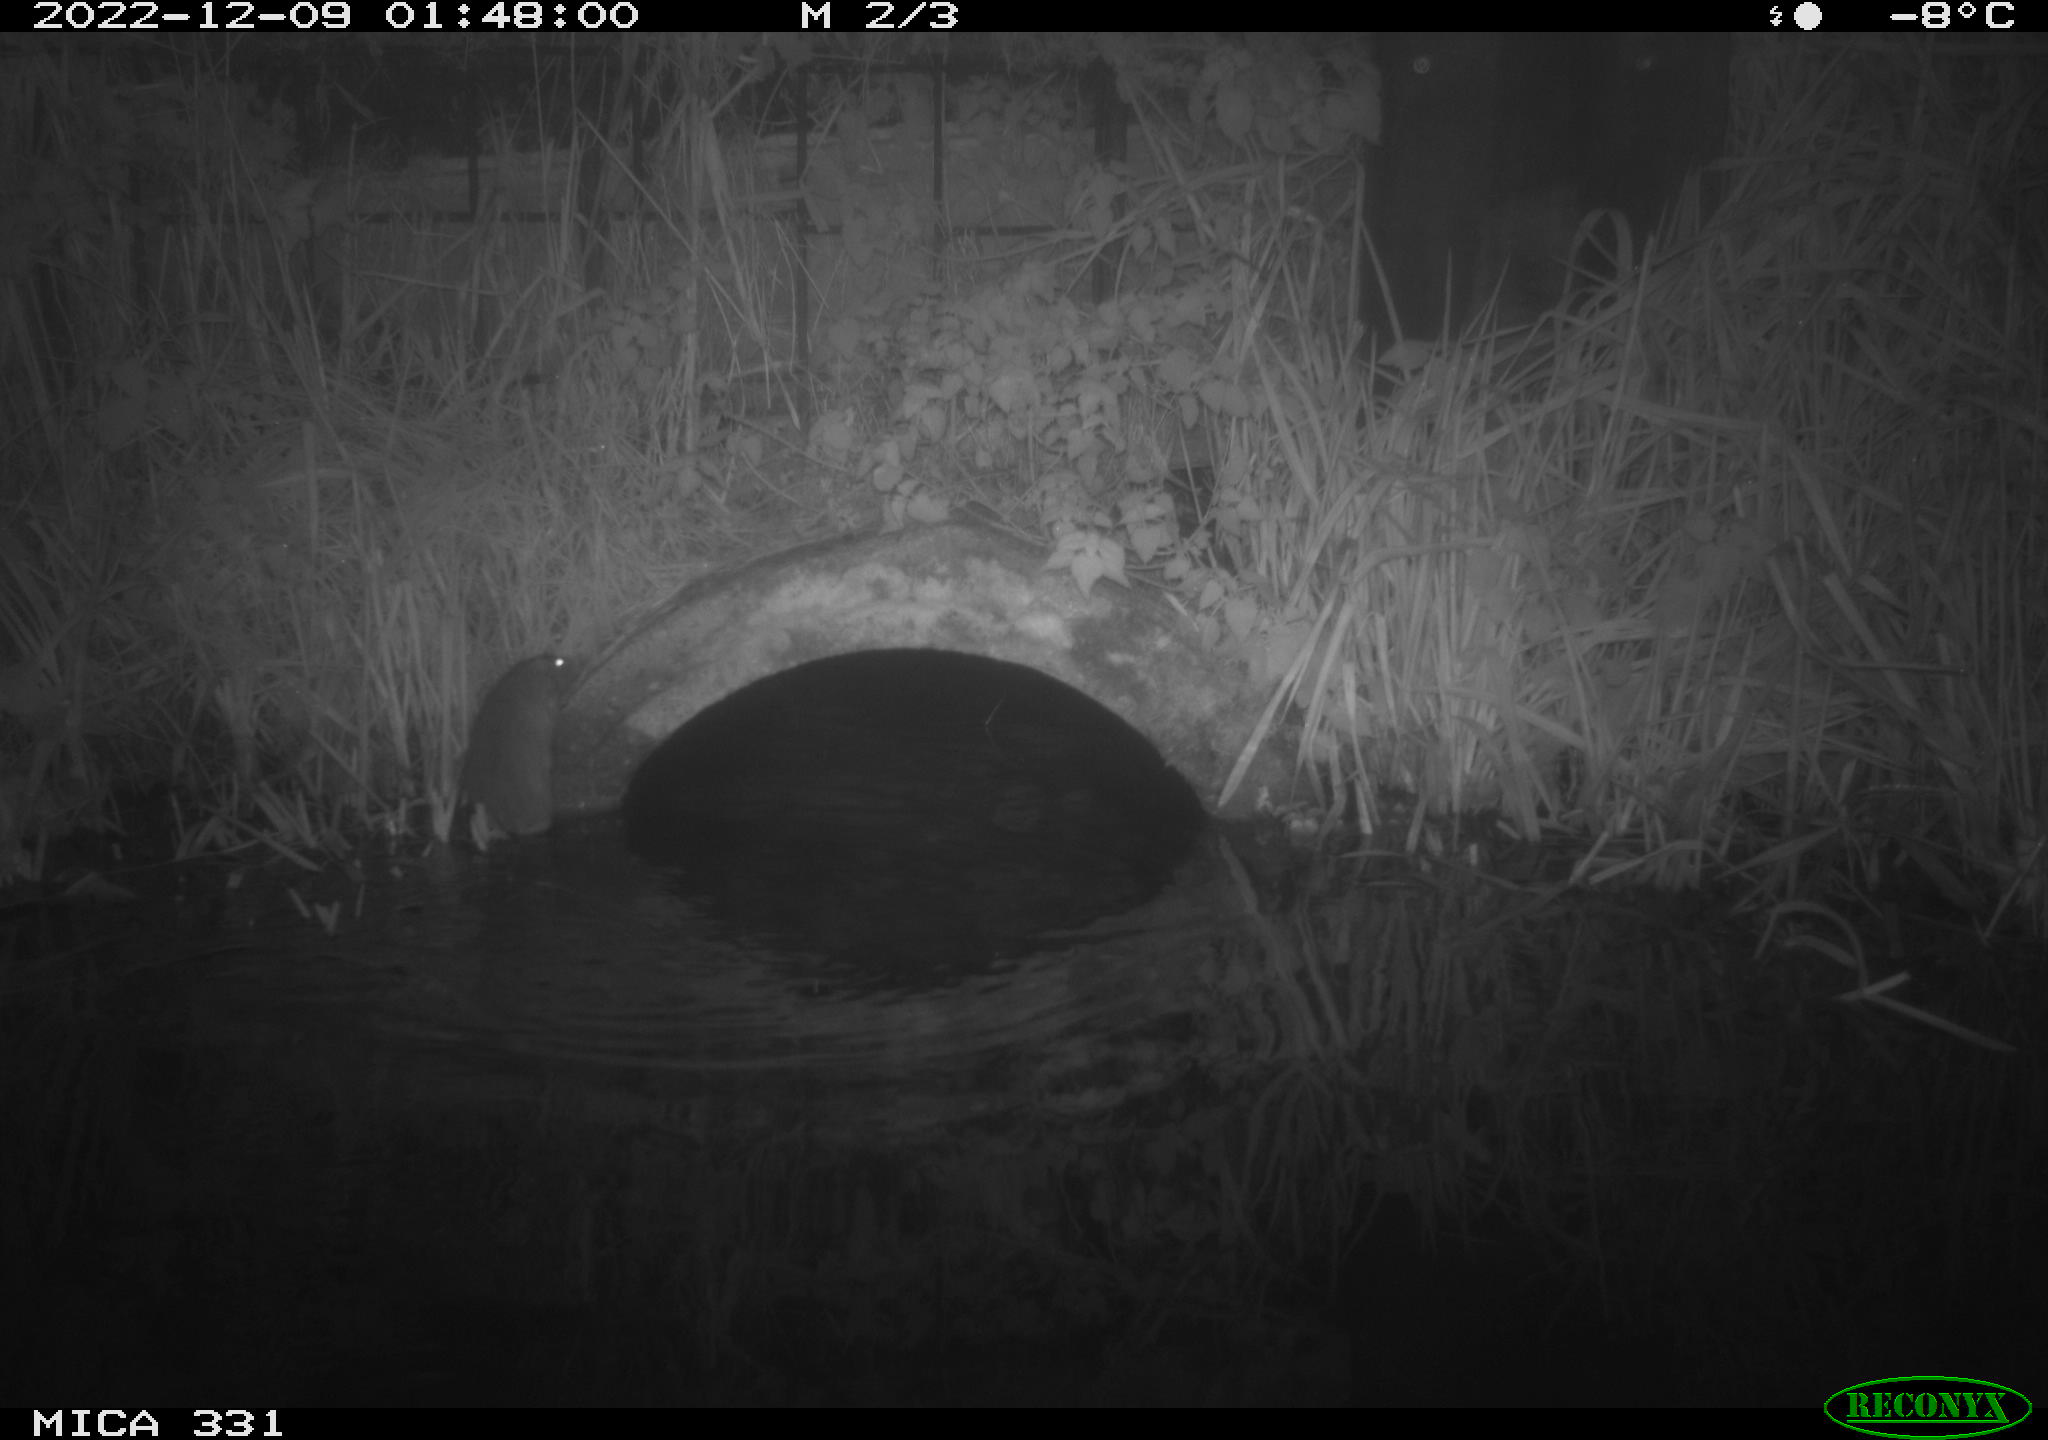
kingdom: Animalia
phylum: Chordata
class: Mammalia
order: Rodentia
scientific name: Rodentia
